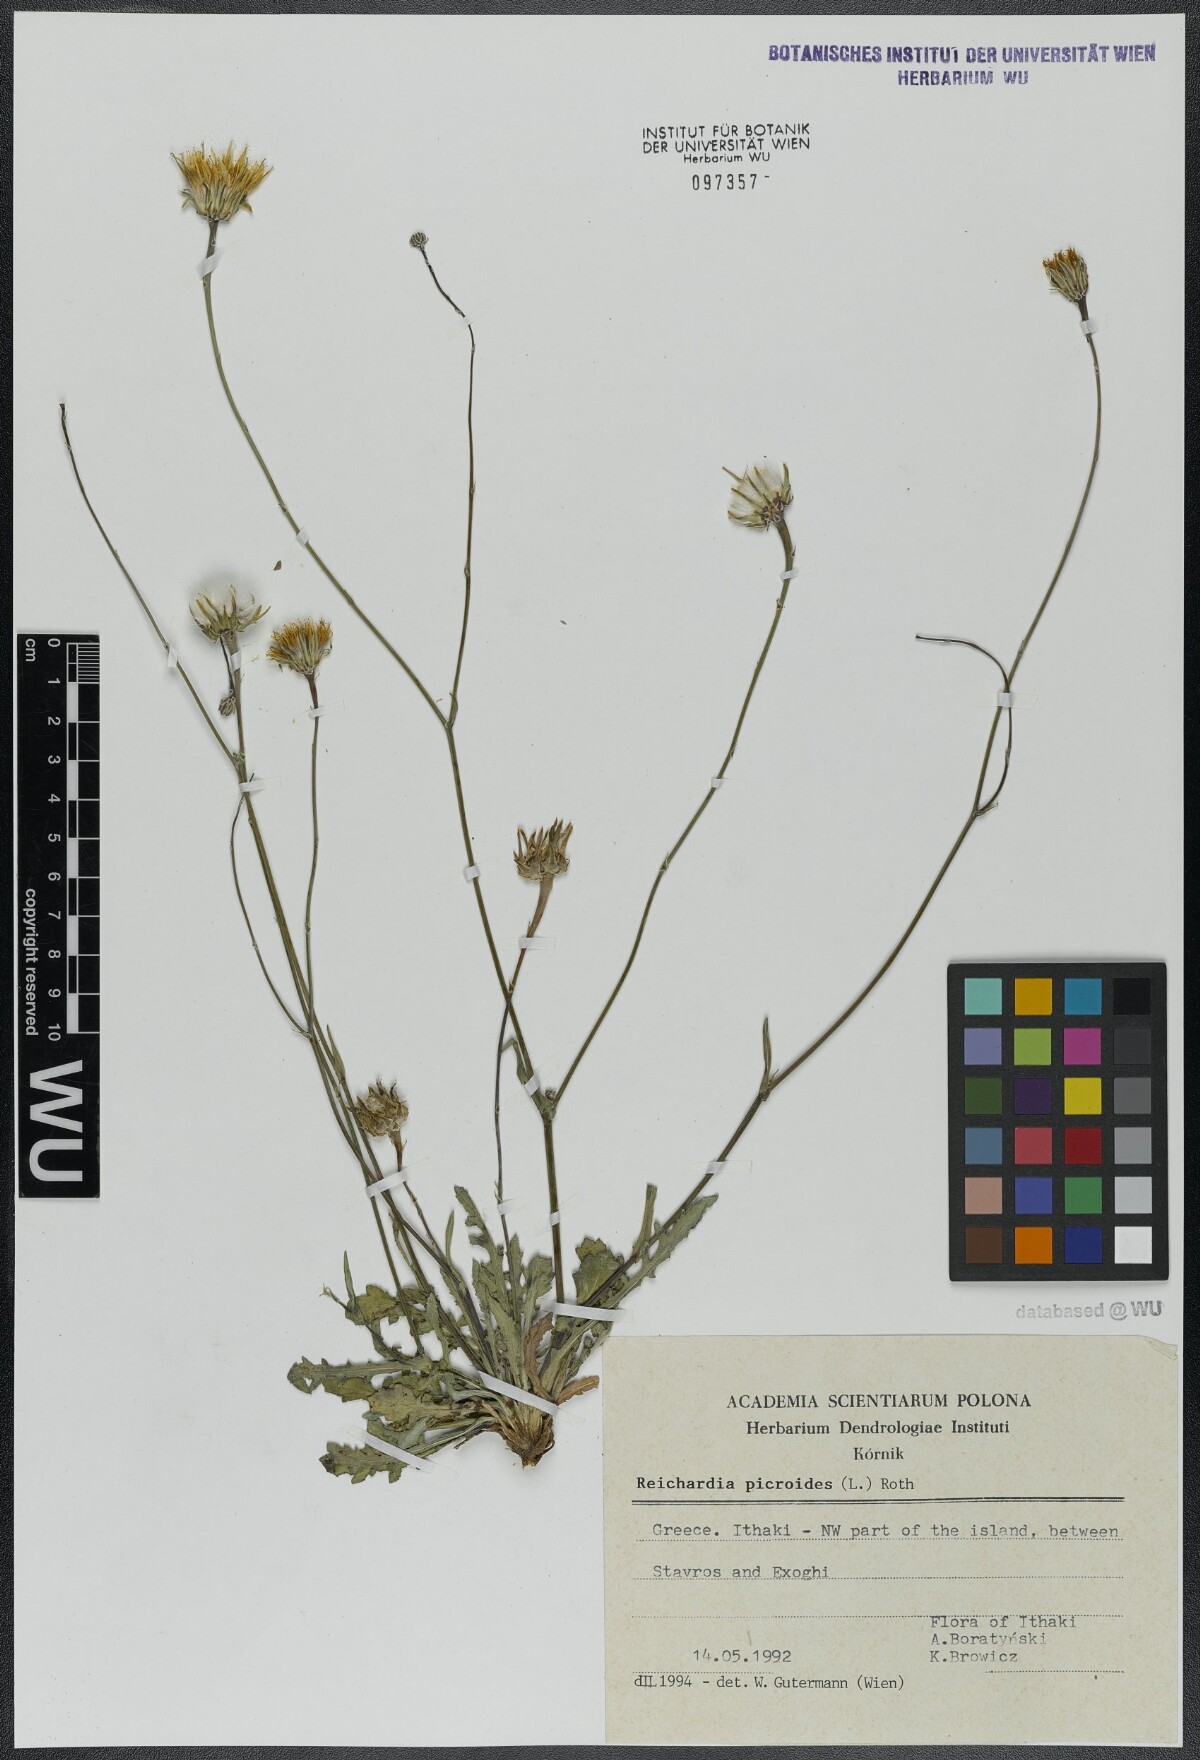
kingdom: Plantae
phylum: Tracheophyta
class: Magnoliopsida
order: Asterales
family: Asteraceae
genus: Reichardia
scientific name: Reichardia picroides
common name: Common brighteyes
